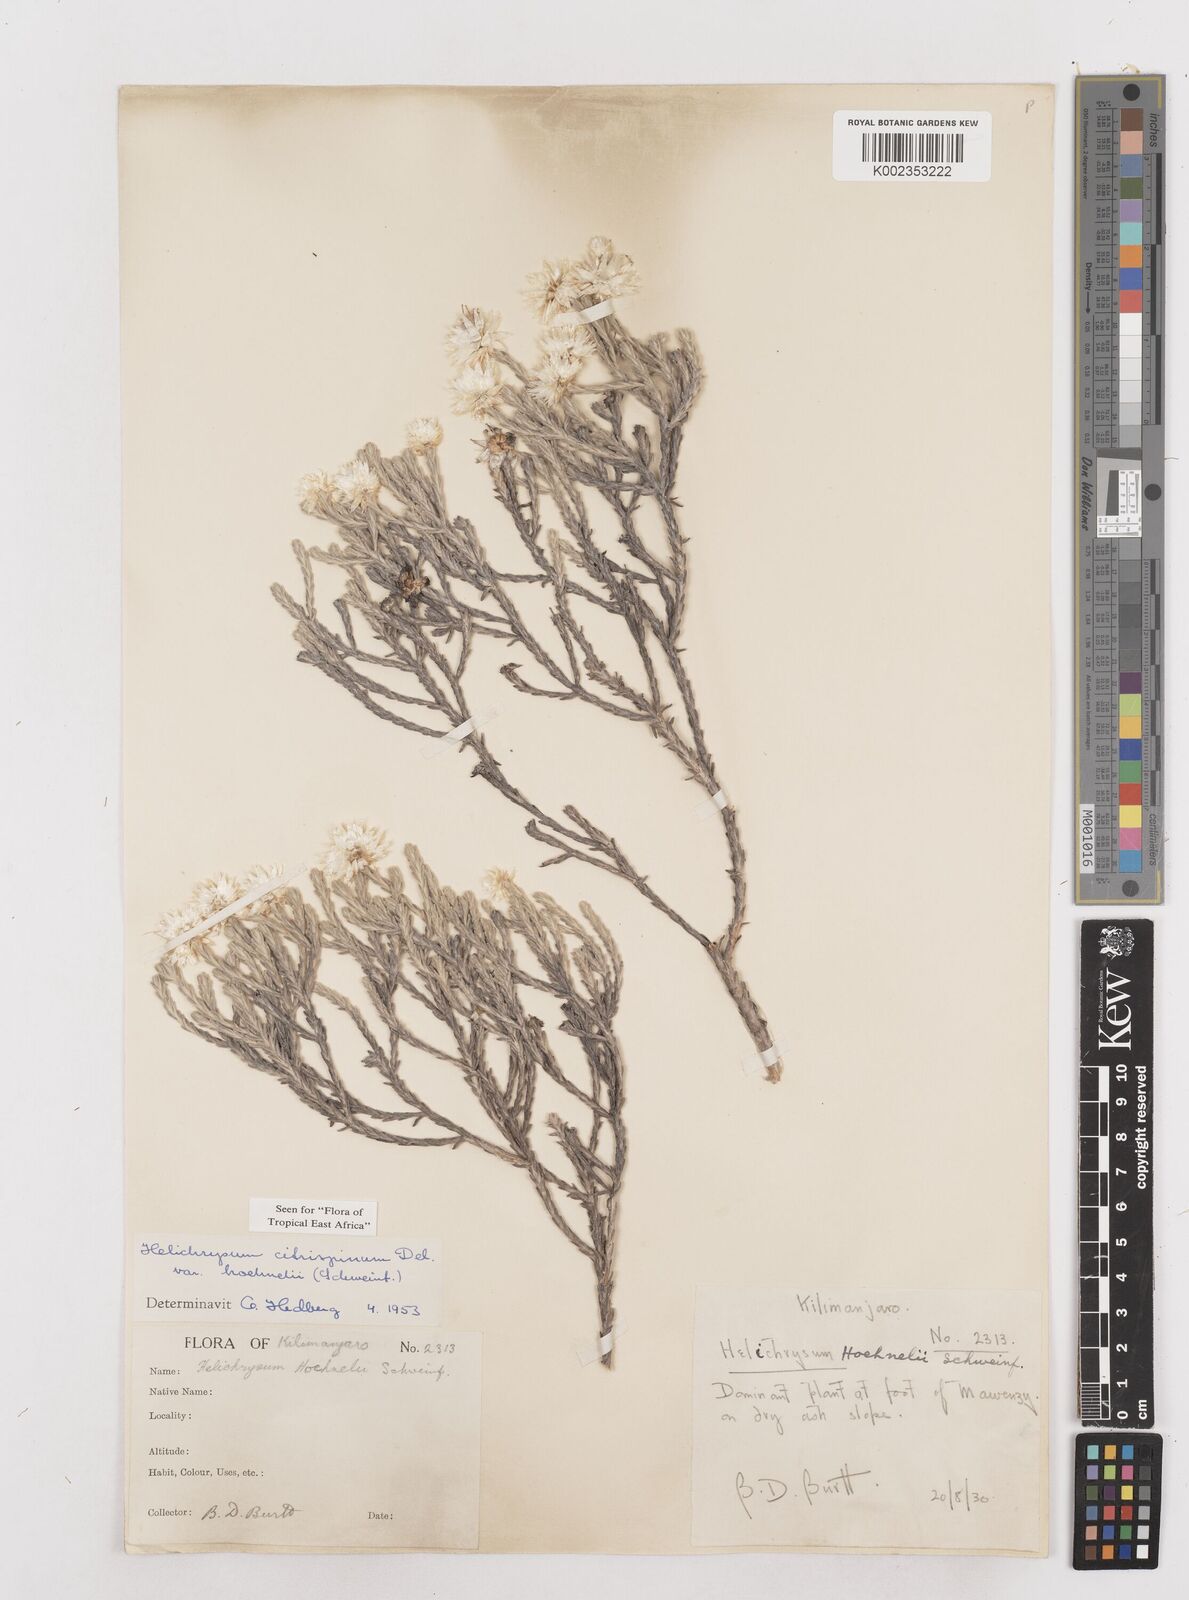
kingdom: Plantae
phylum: Tracheophyta
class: Magnoliopsida
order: Asterales
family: Asteraceae
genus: Helichrysum
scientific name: Helichrysum citrispinum
